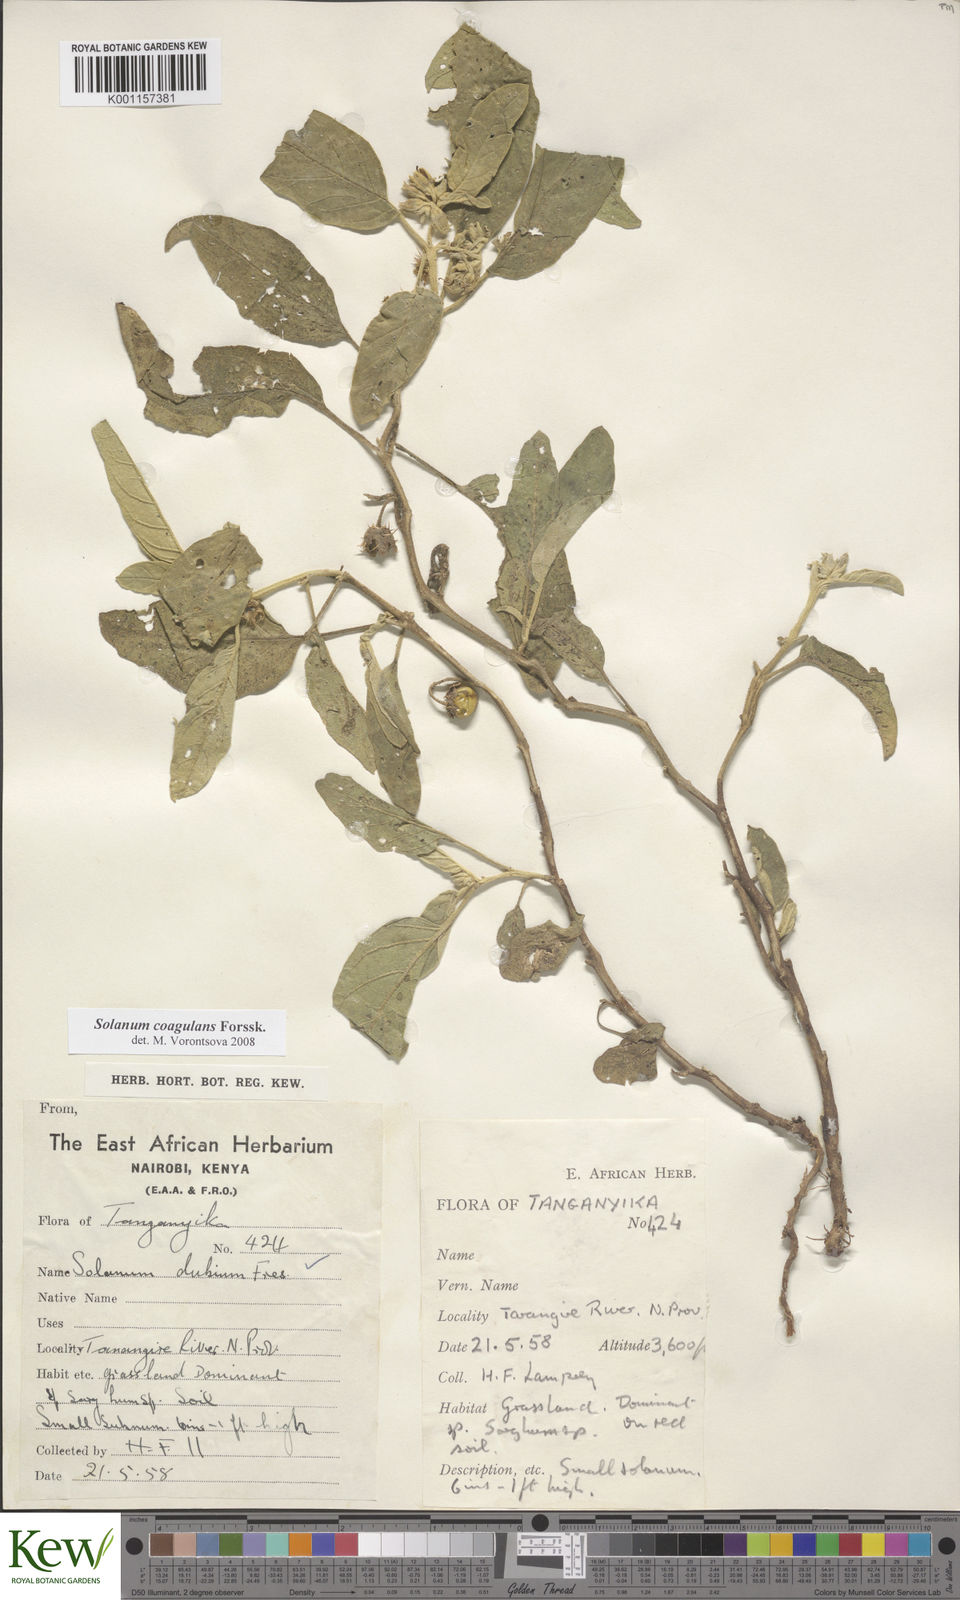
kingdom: Plantae
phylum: Tracheophyta
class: Magnoliopsida
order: Solanales
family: Solanaceae
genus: Solanum
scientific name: Solanum coagulans
